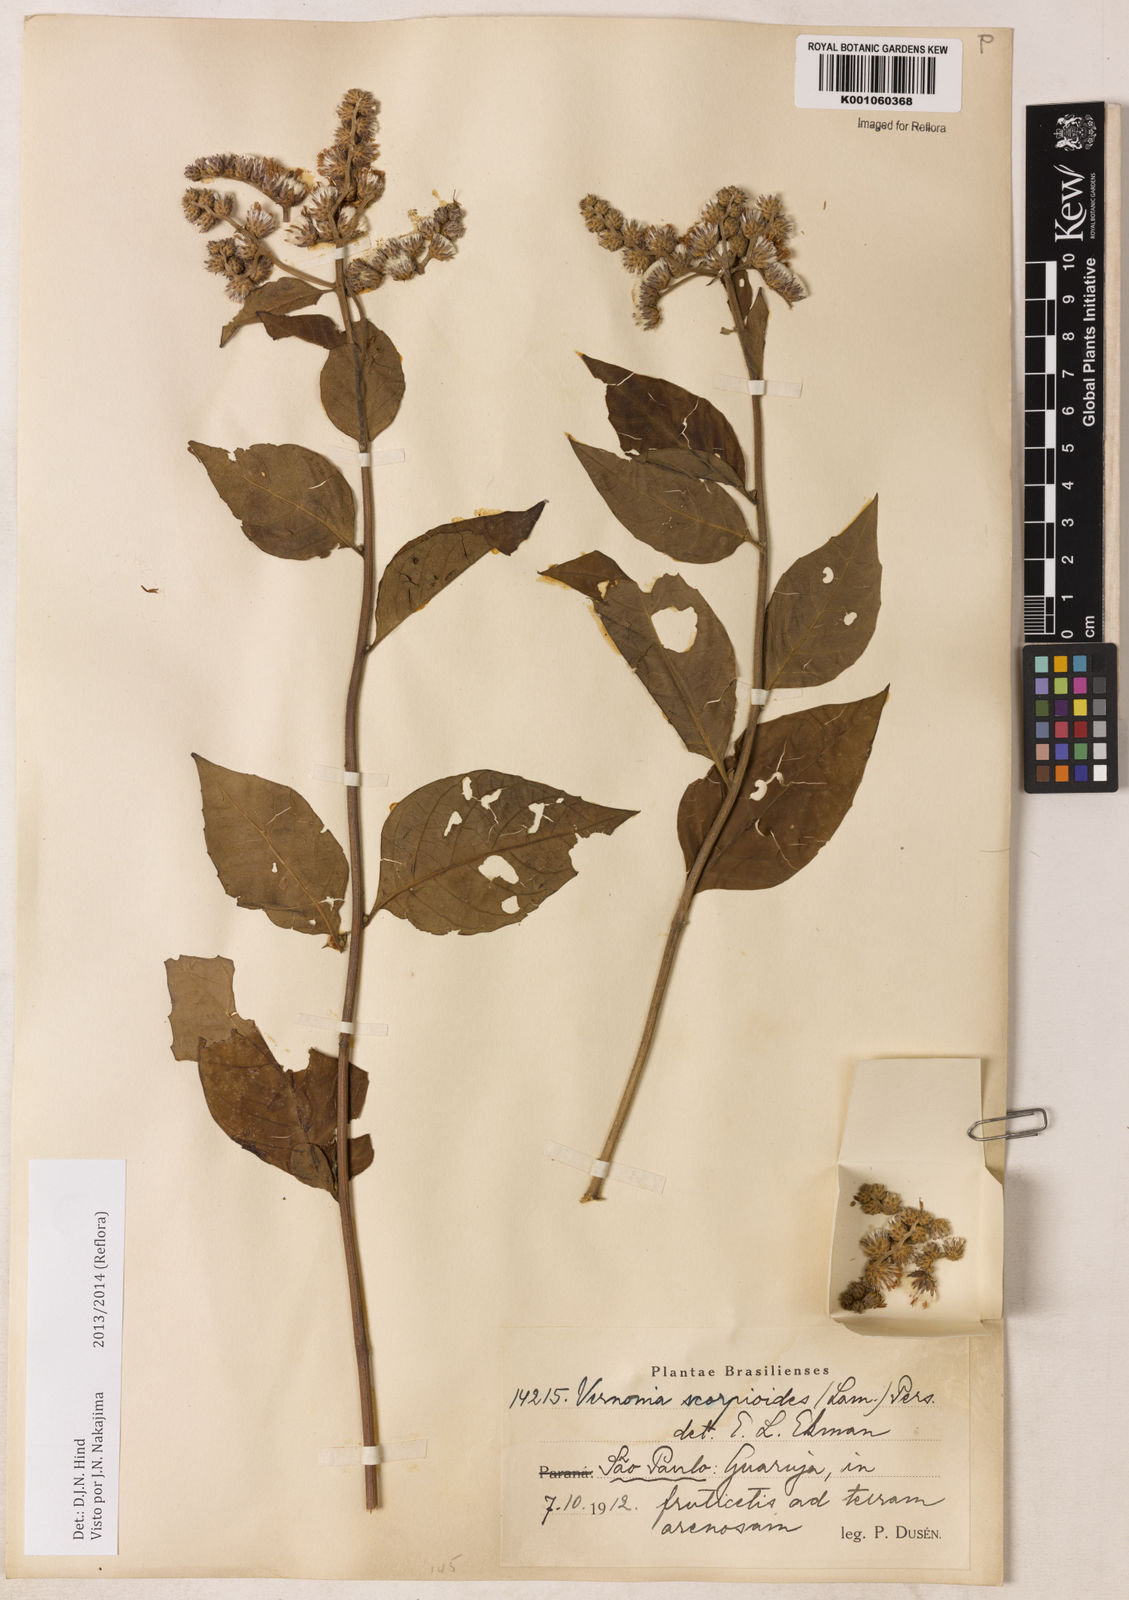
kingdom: Plantae
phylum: Tracheophyta
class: Magnoliopsida
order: Asterales
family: Asteraceae
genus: Cyrtocymura
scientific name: Cyrtocymura scorpioides
